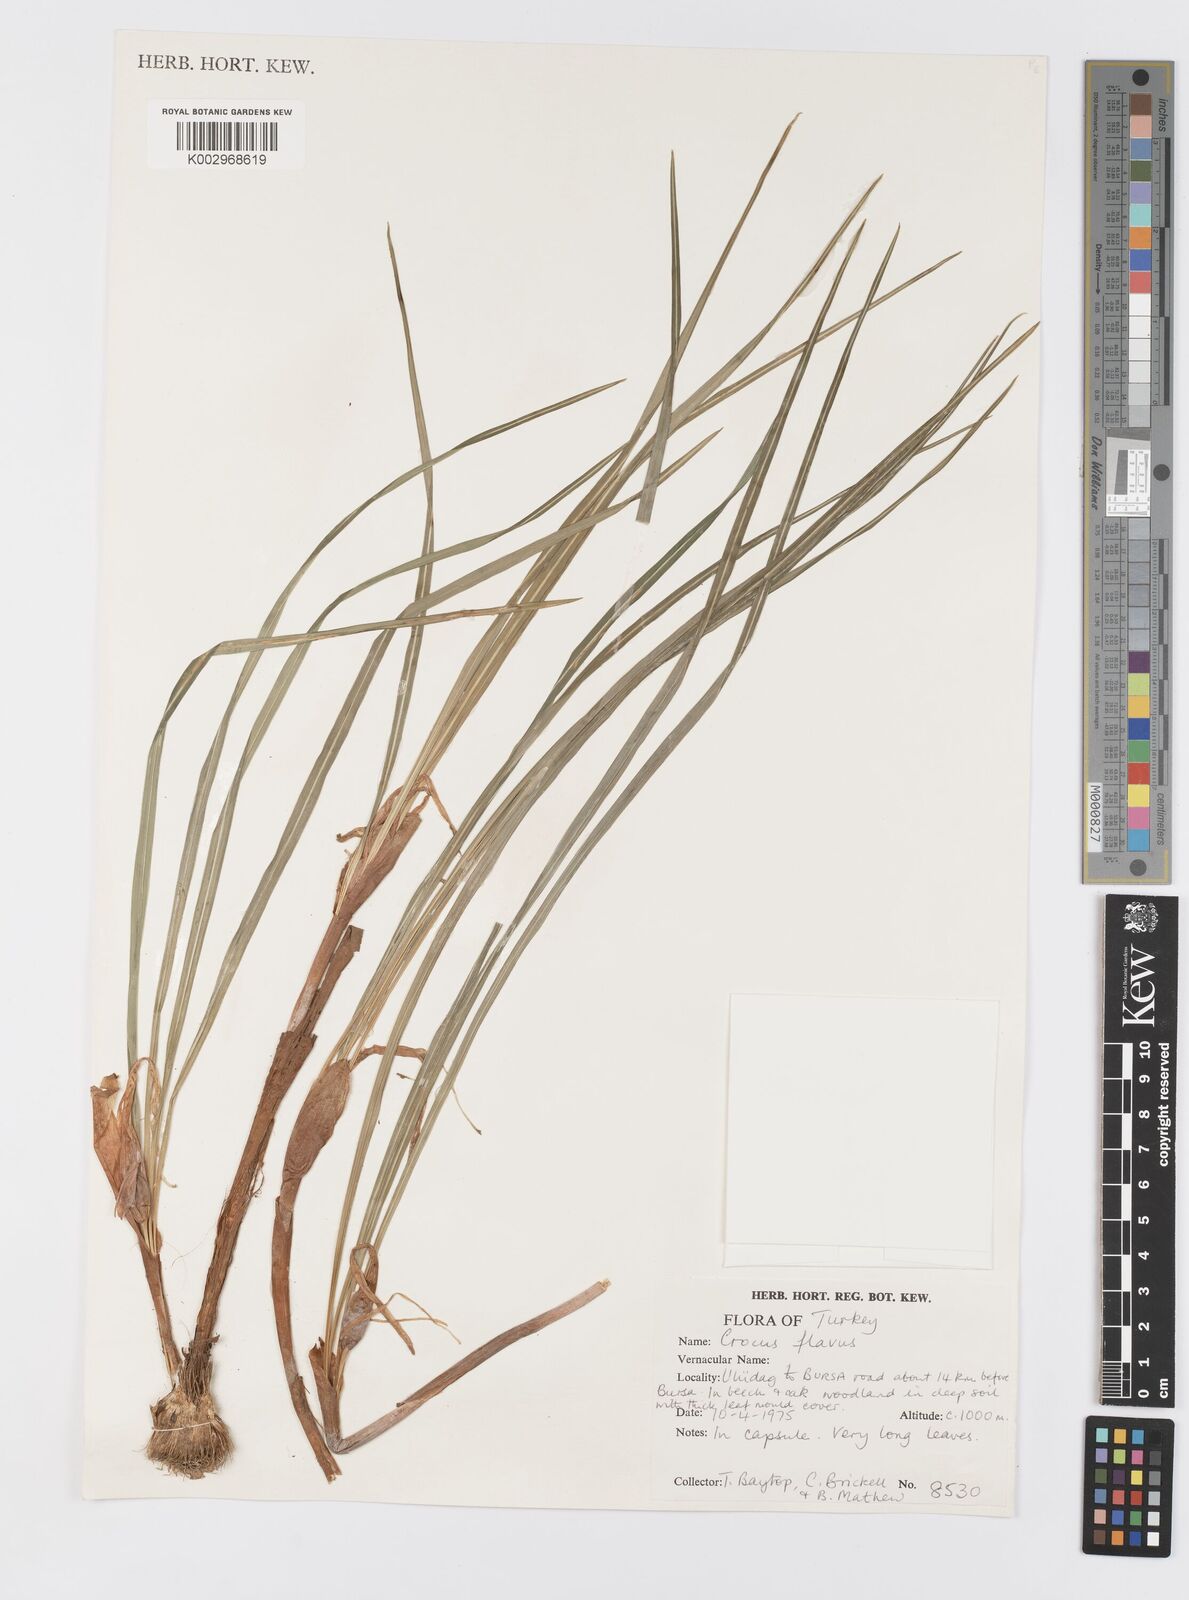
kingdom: Plantae
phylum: Tracheophyta
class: Liliopsida
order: Asparagales
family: Iridaceae
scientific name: Iridaceae
